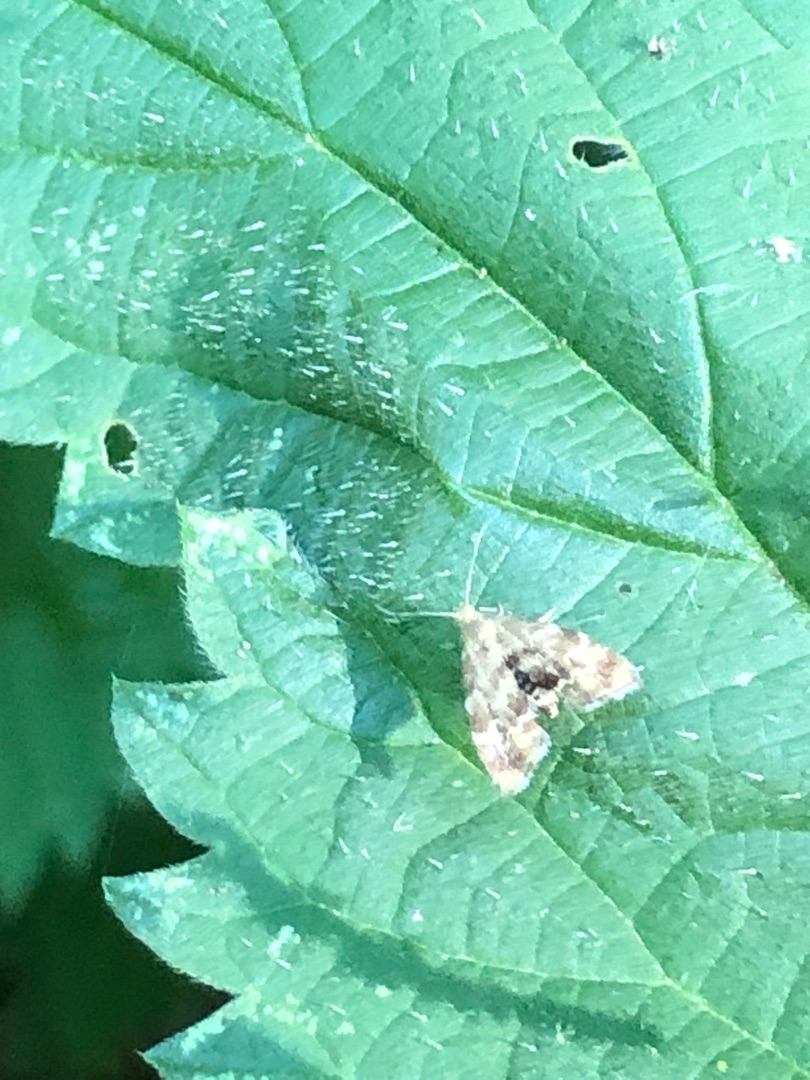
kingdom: Animalia
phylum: Arthropoda
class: Insecta
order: Lepidoptera
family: Choreutidae
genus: Anthophila
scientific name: Anthophila fabriciana
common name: Bredvinget nældevikler
